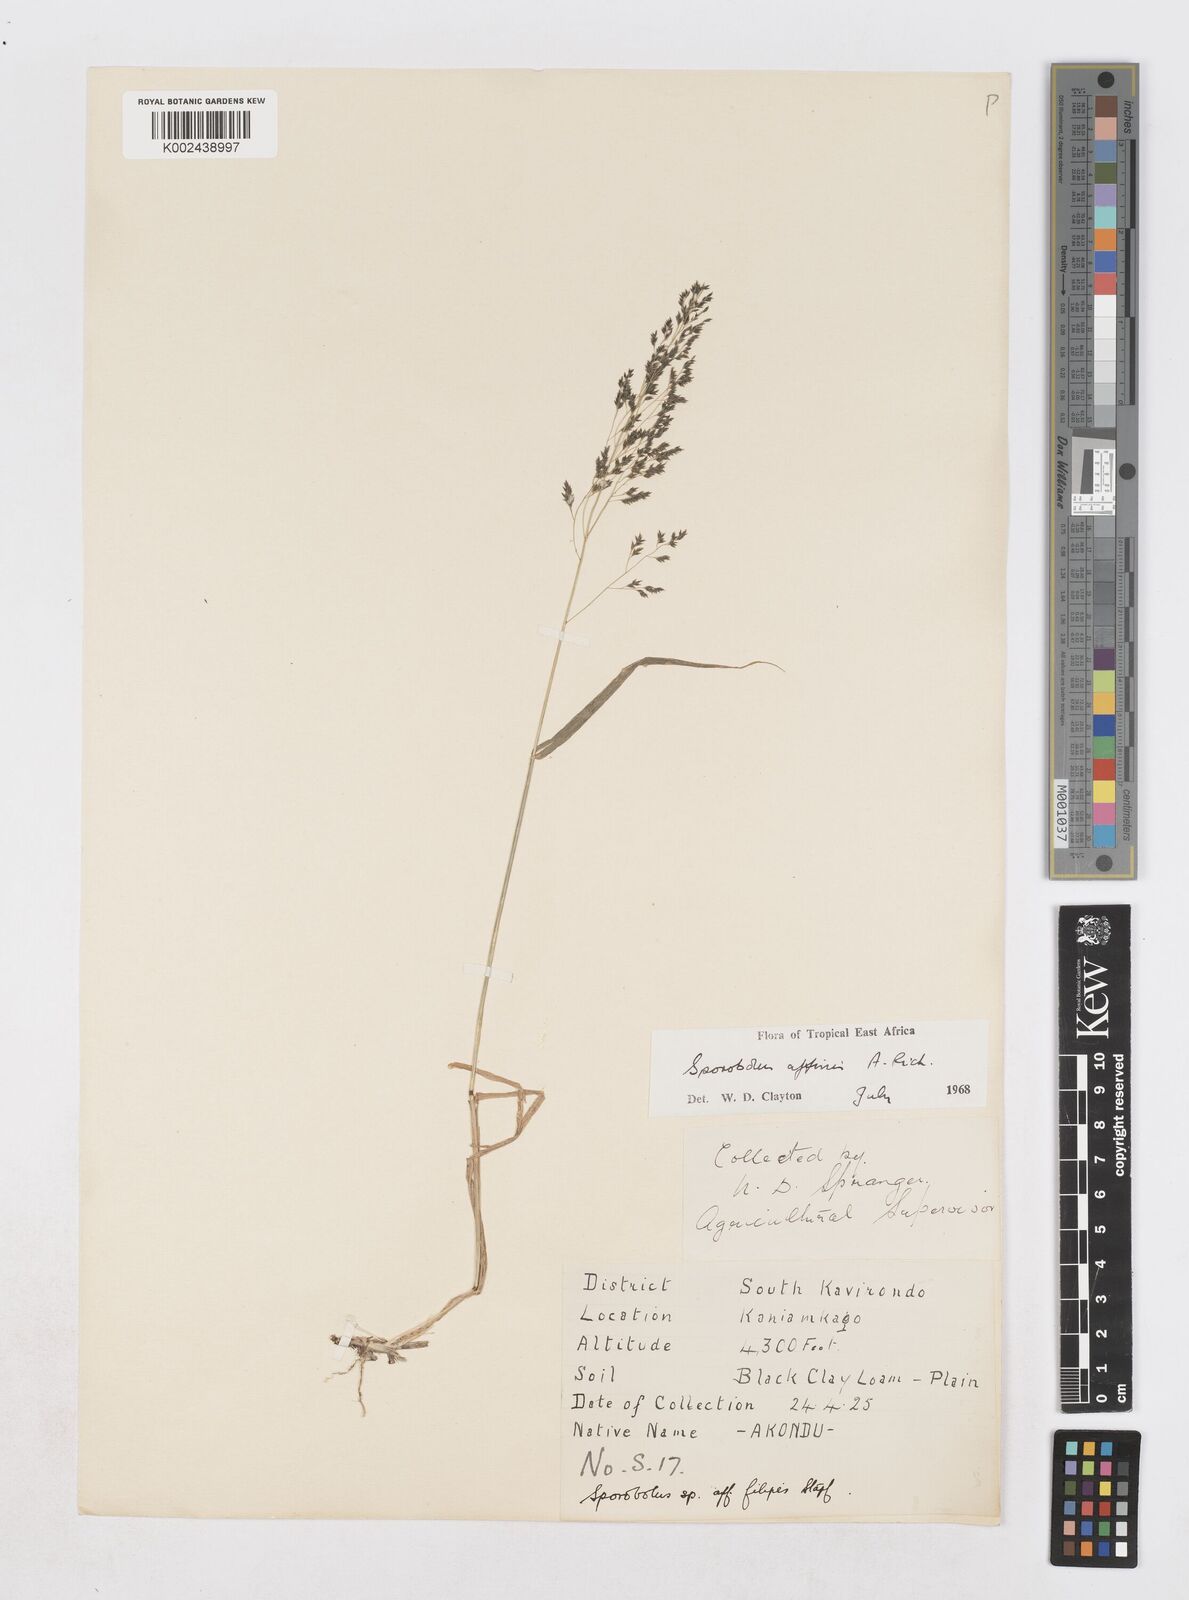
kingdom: Plantae
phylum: Tracheophyta
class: Liliopsida
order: Poales
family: Poaceae
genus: Sporobolus
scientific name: Sporobolus confinis
